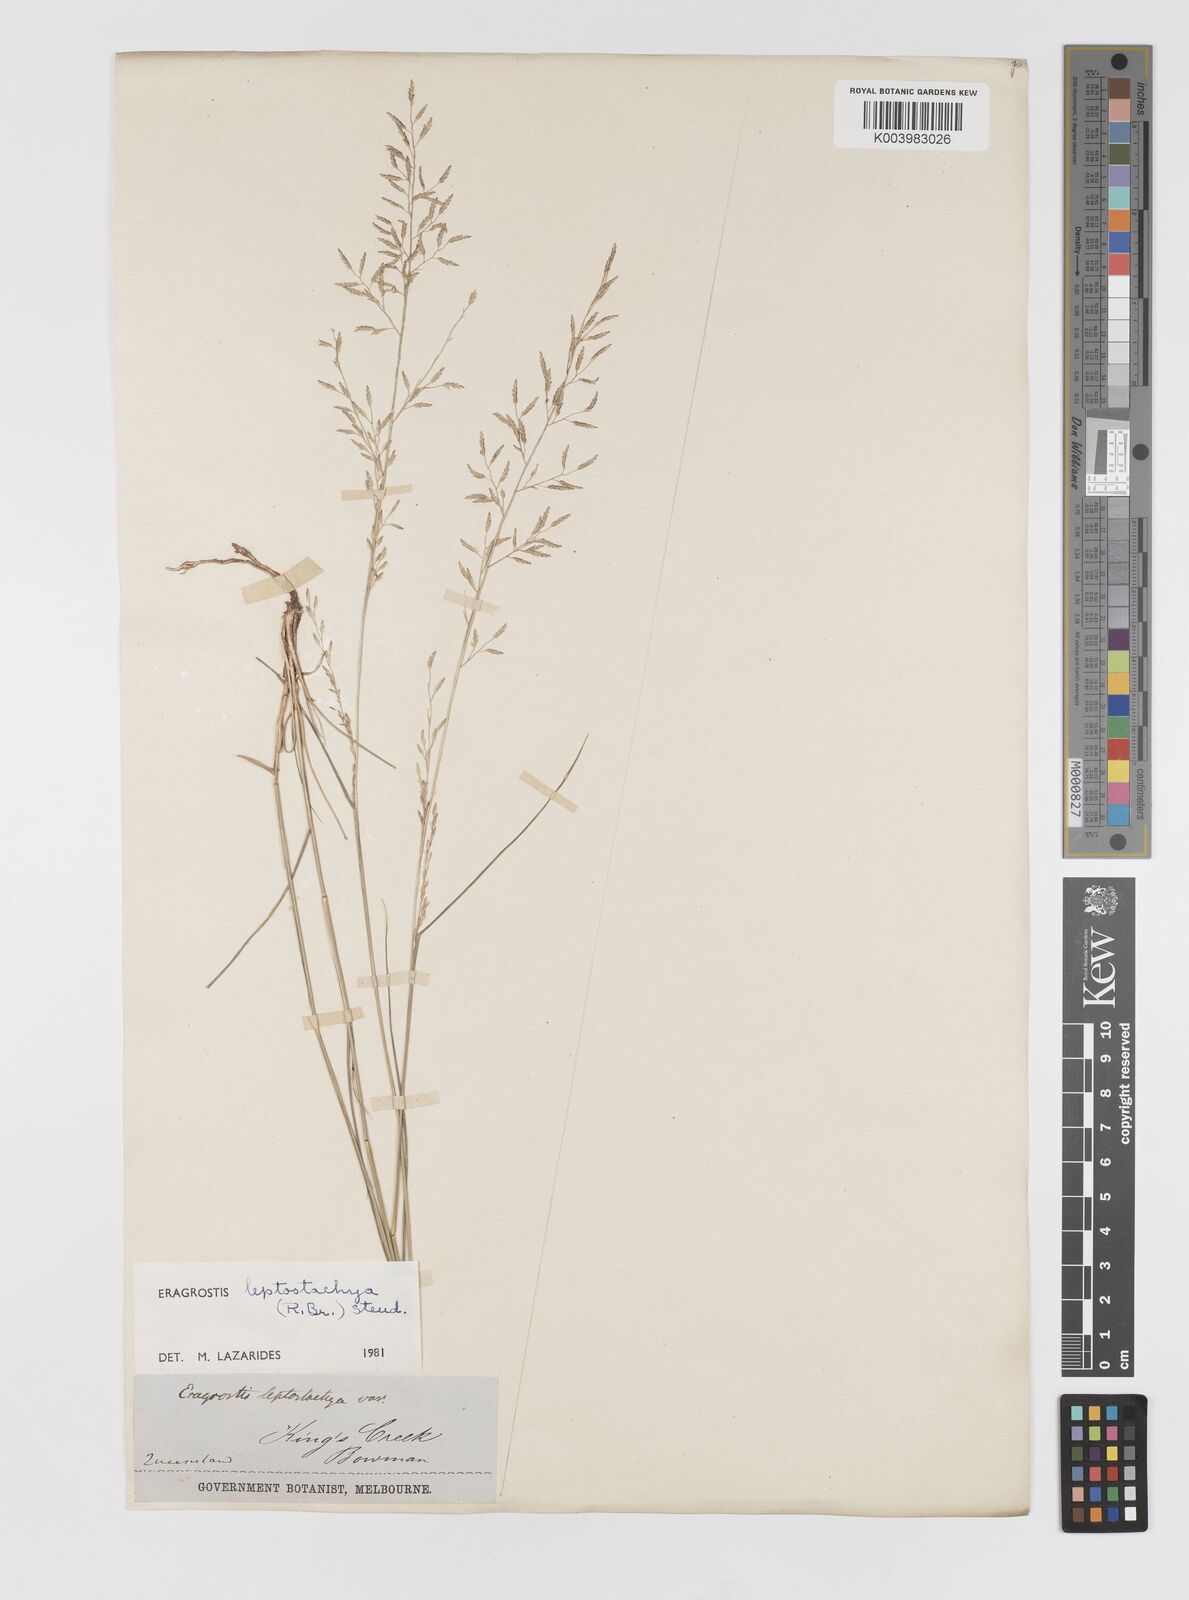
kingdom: Plantae
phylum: Tracheophyta
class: Liliopsida
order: Poales
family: Poaceae
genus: Eragrostis
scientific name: Eragrostis leptostachya
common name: Australian lovegrass
